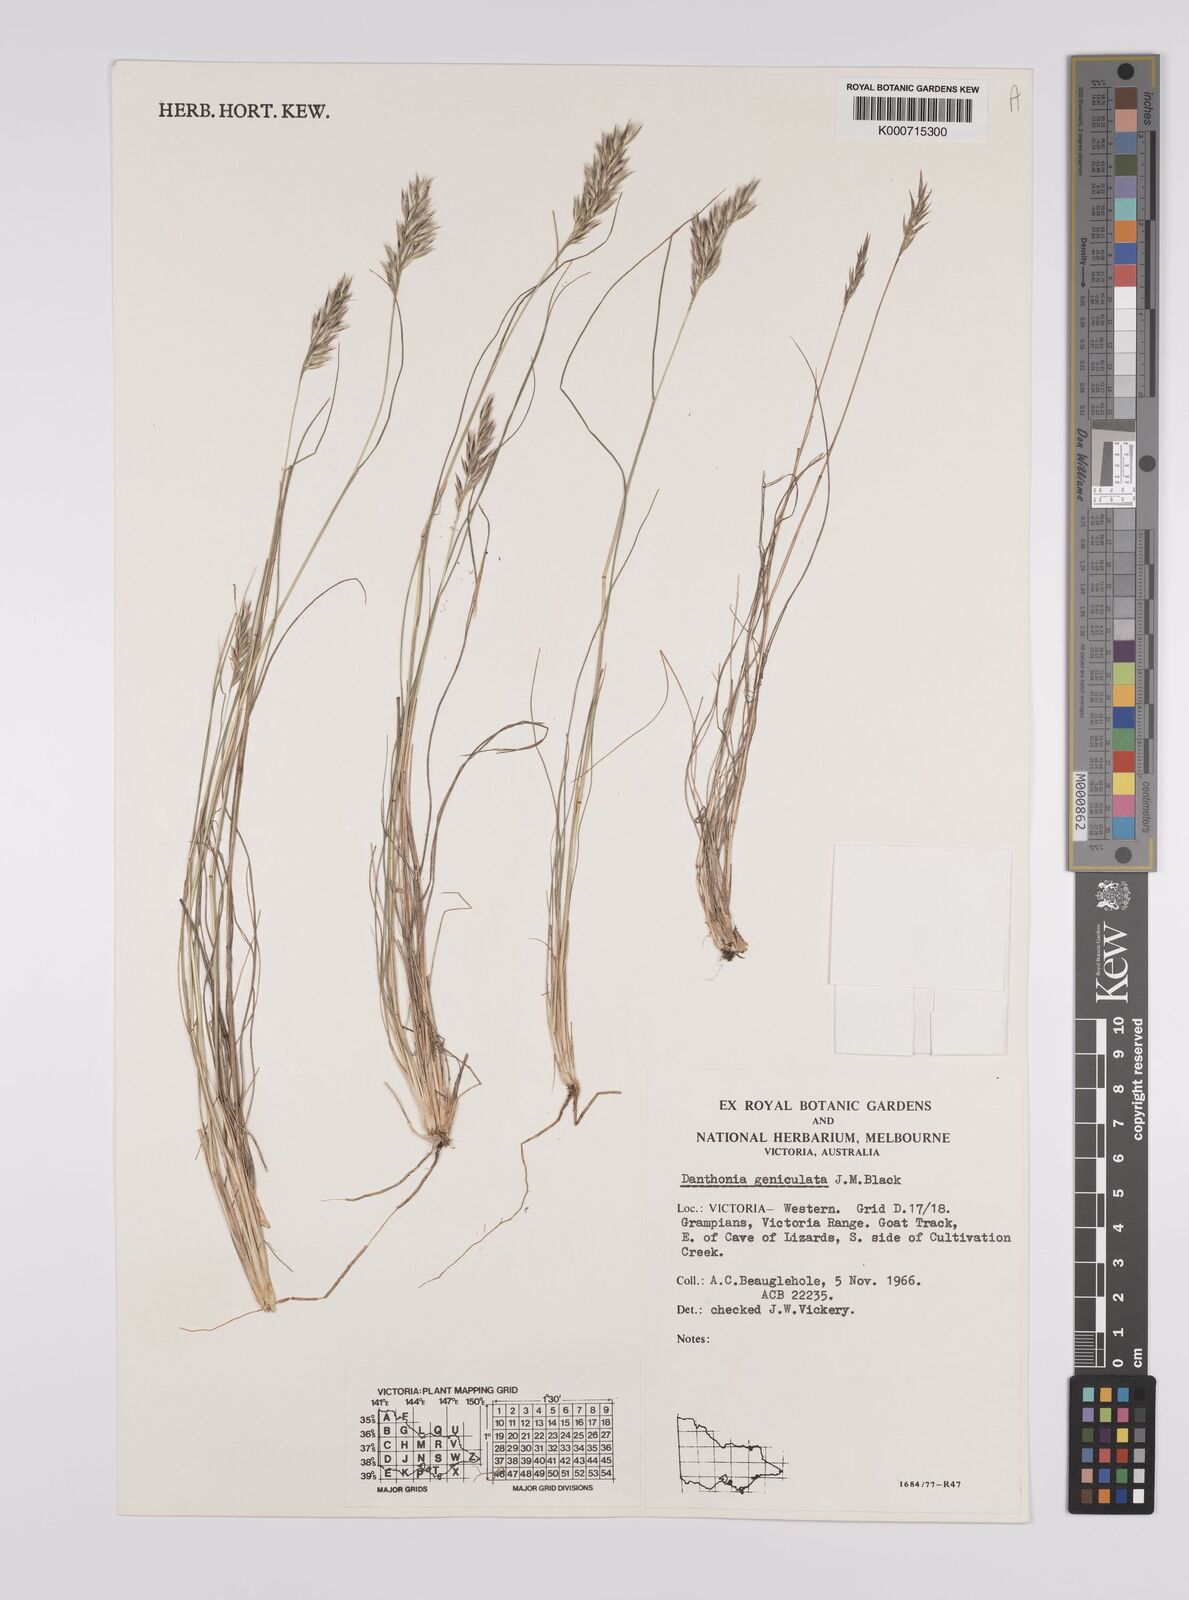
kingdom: Plantae
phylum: Tracheophyta
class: Liliopsida
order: Poales
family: Poaceae
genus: Rytidosperma
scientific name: Rytidosperma geniculatum
